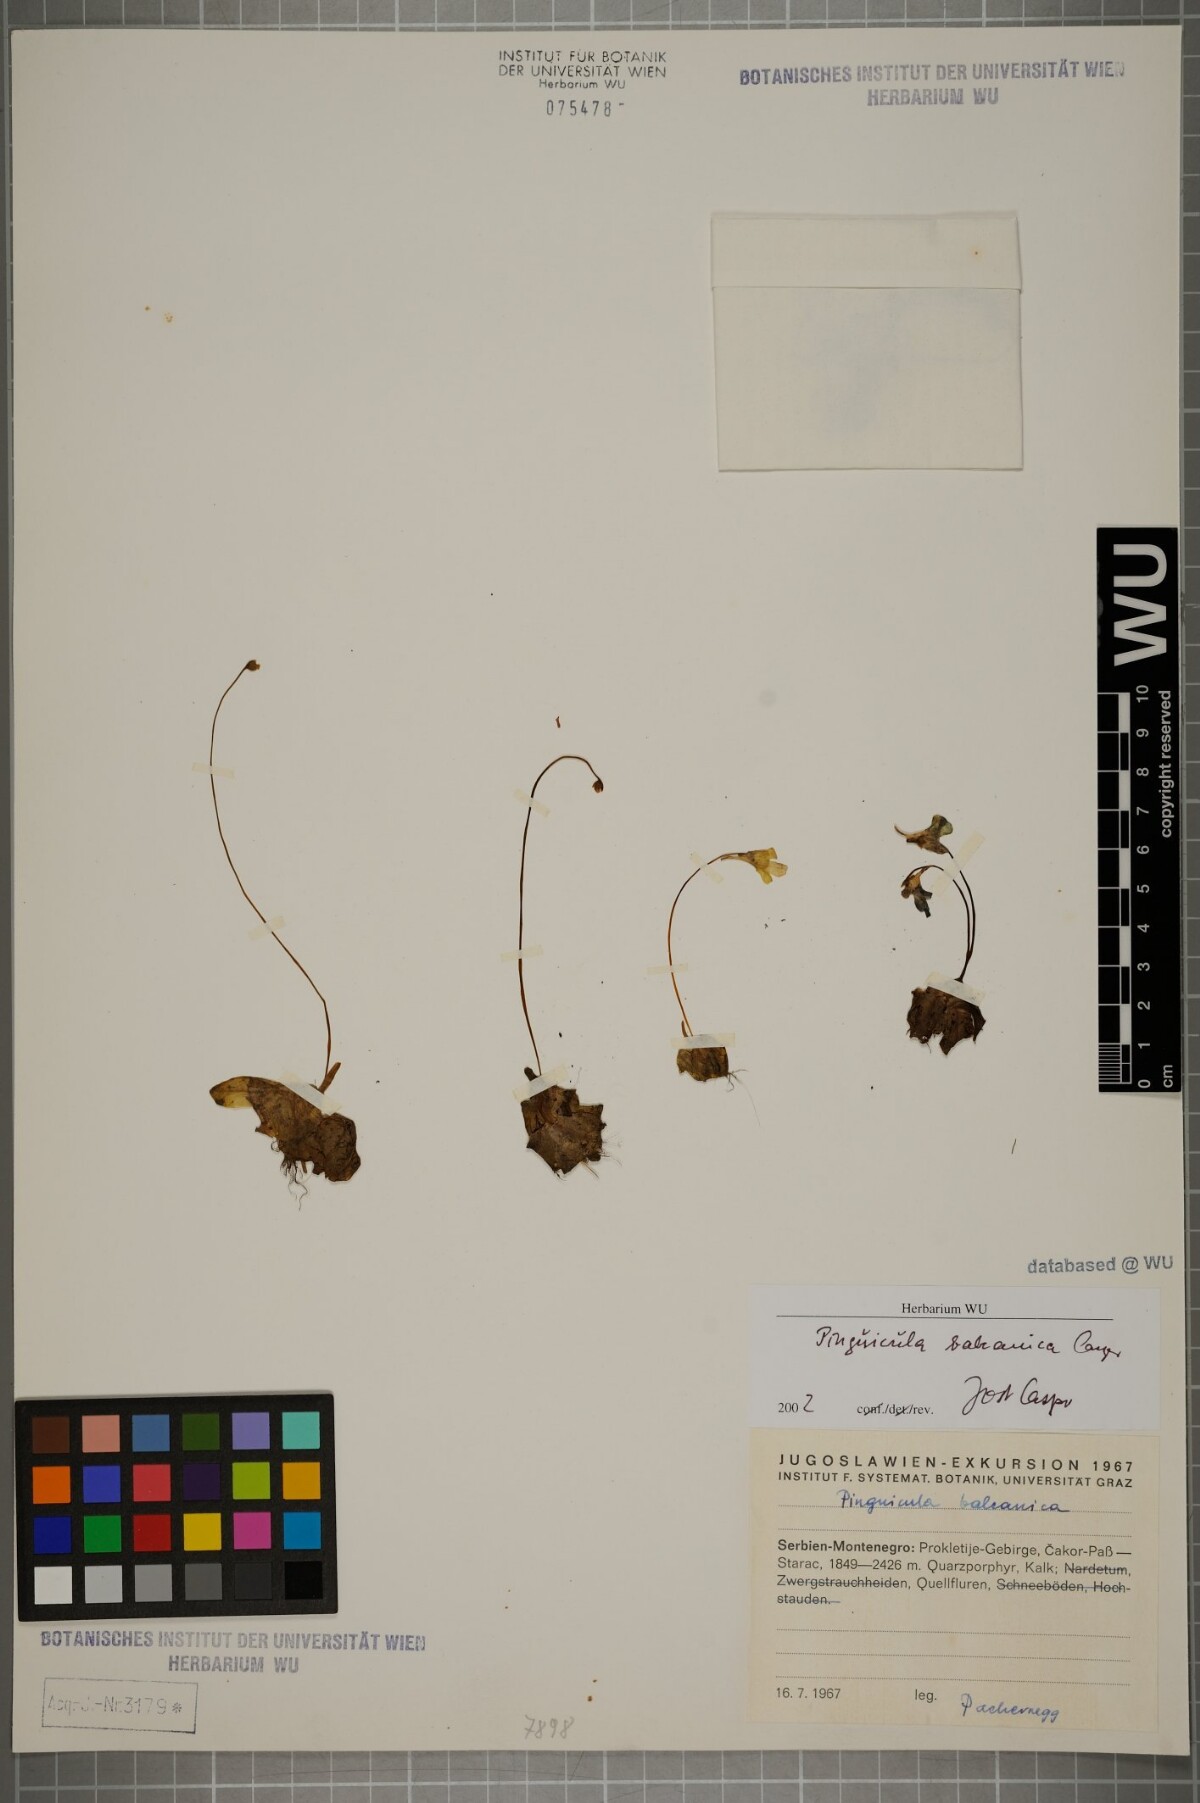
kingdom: Plantae
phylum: Tracheophyta
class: Magnoliopsida
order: Lamiales
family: Lentibulariaceae
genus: Pinguicula
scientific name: Pinguicula balcanica
